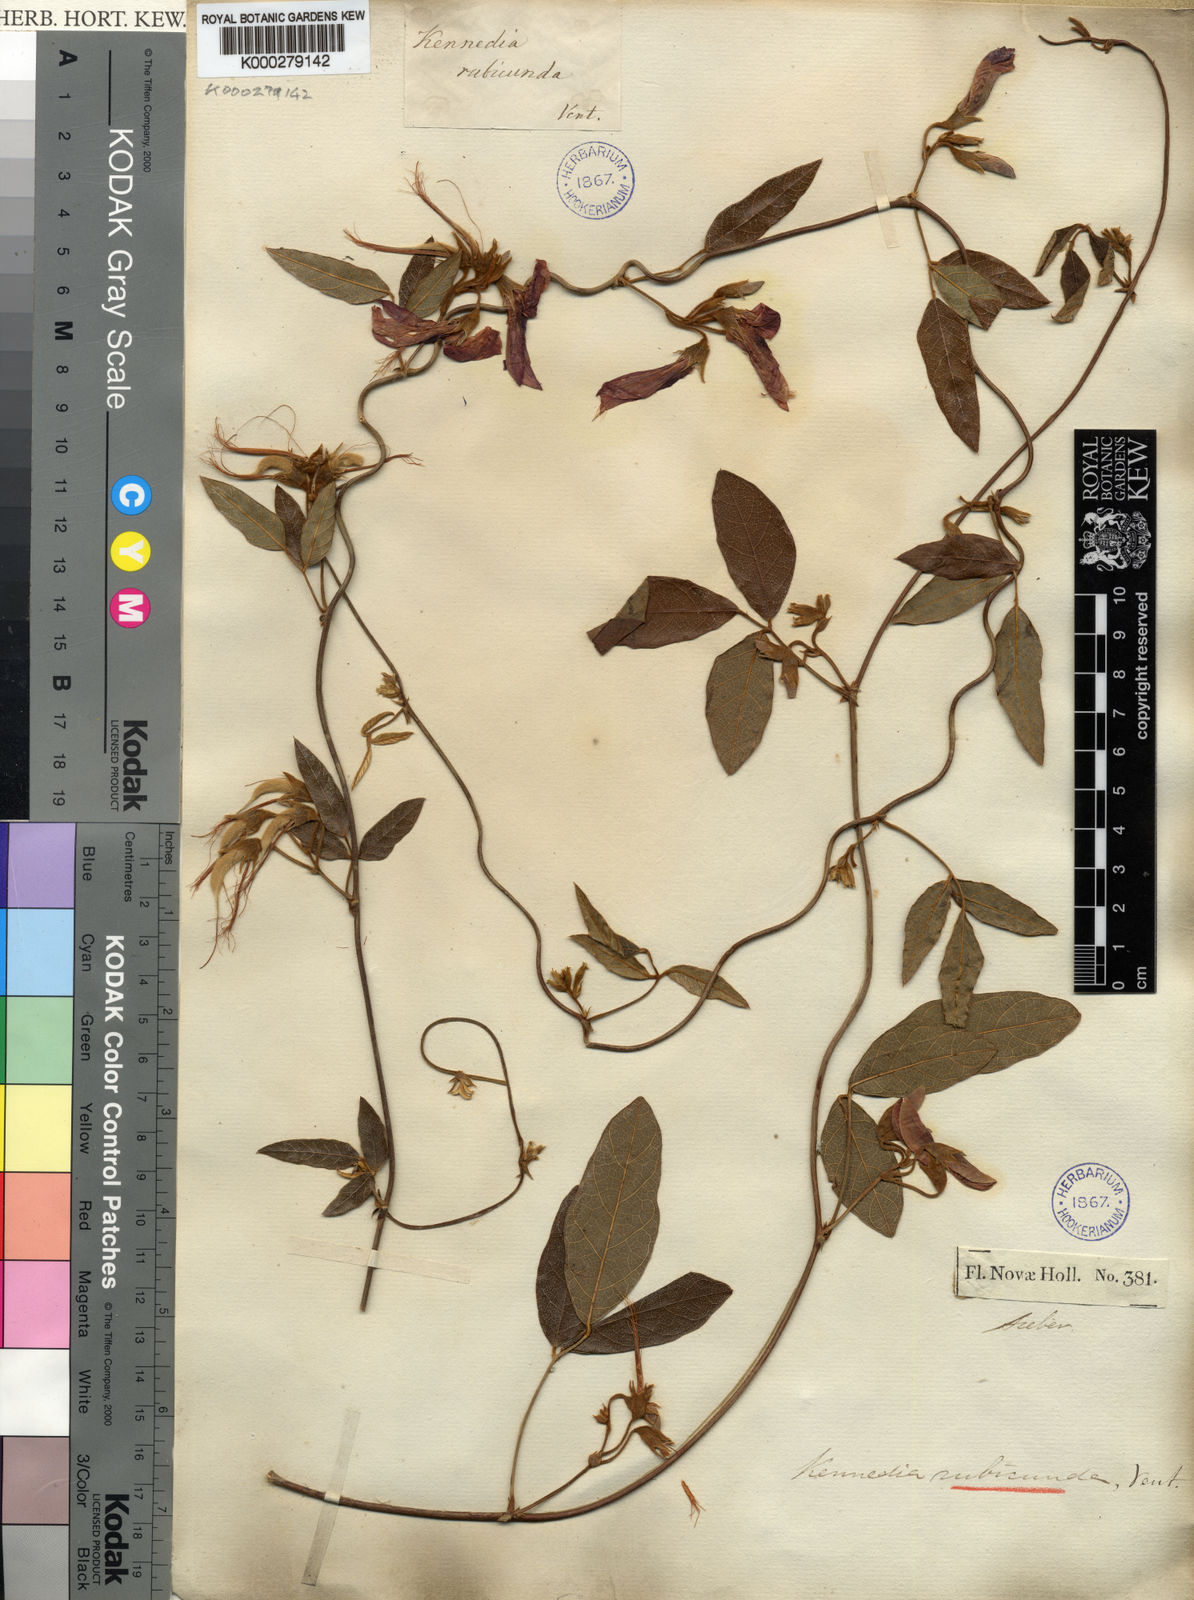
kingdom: Plantae
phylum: Tracheophyta
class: Magnoliopsida
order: Fabales
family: Fabaceae
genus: Kennedia
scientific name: Kennedia rubicunda
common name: Red kennedy-pea
